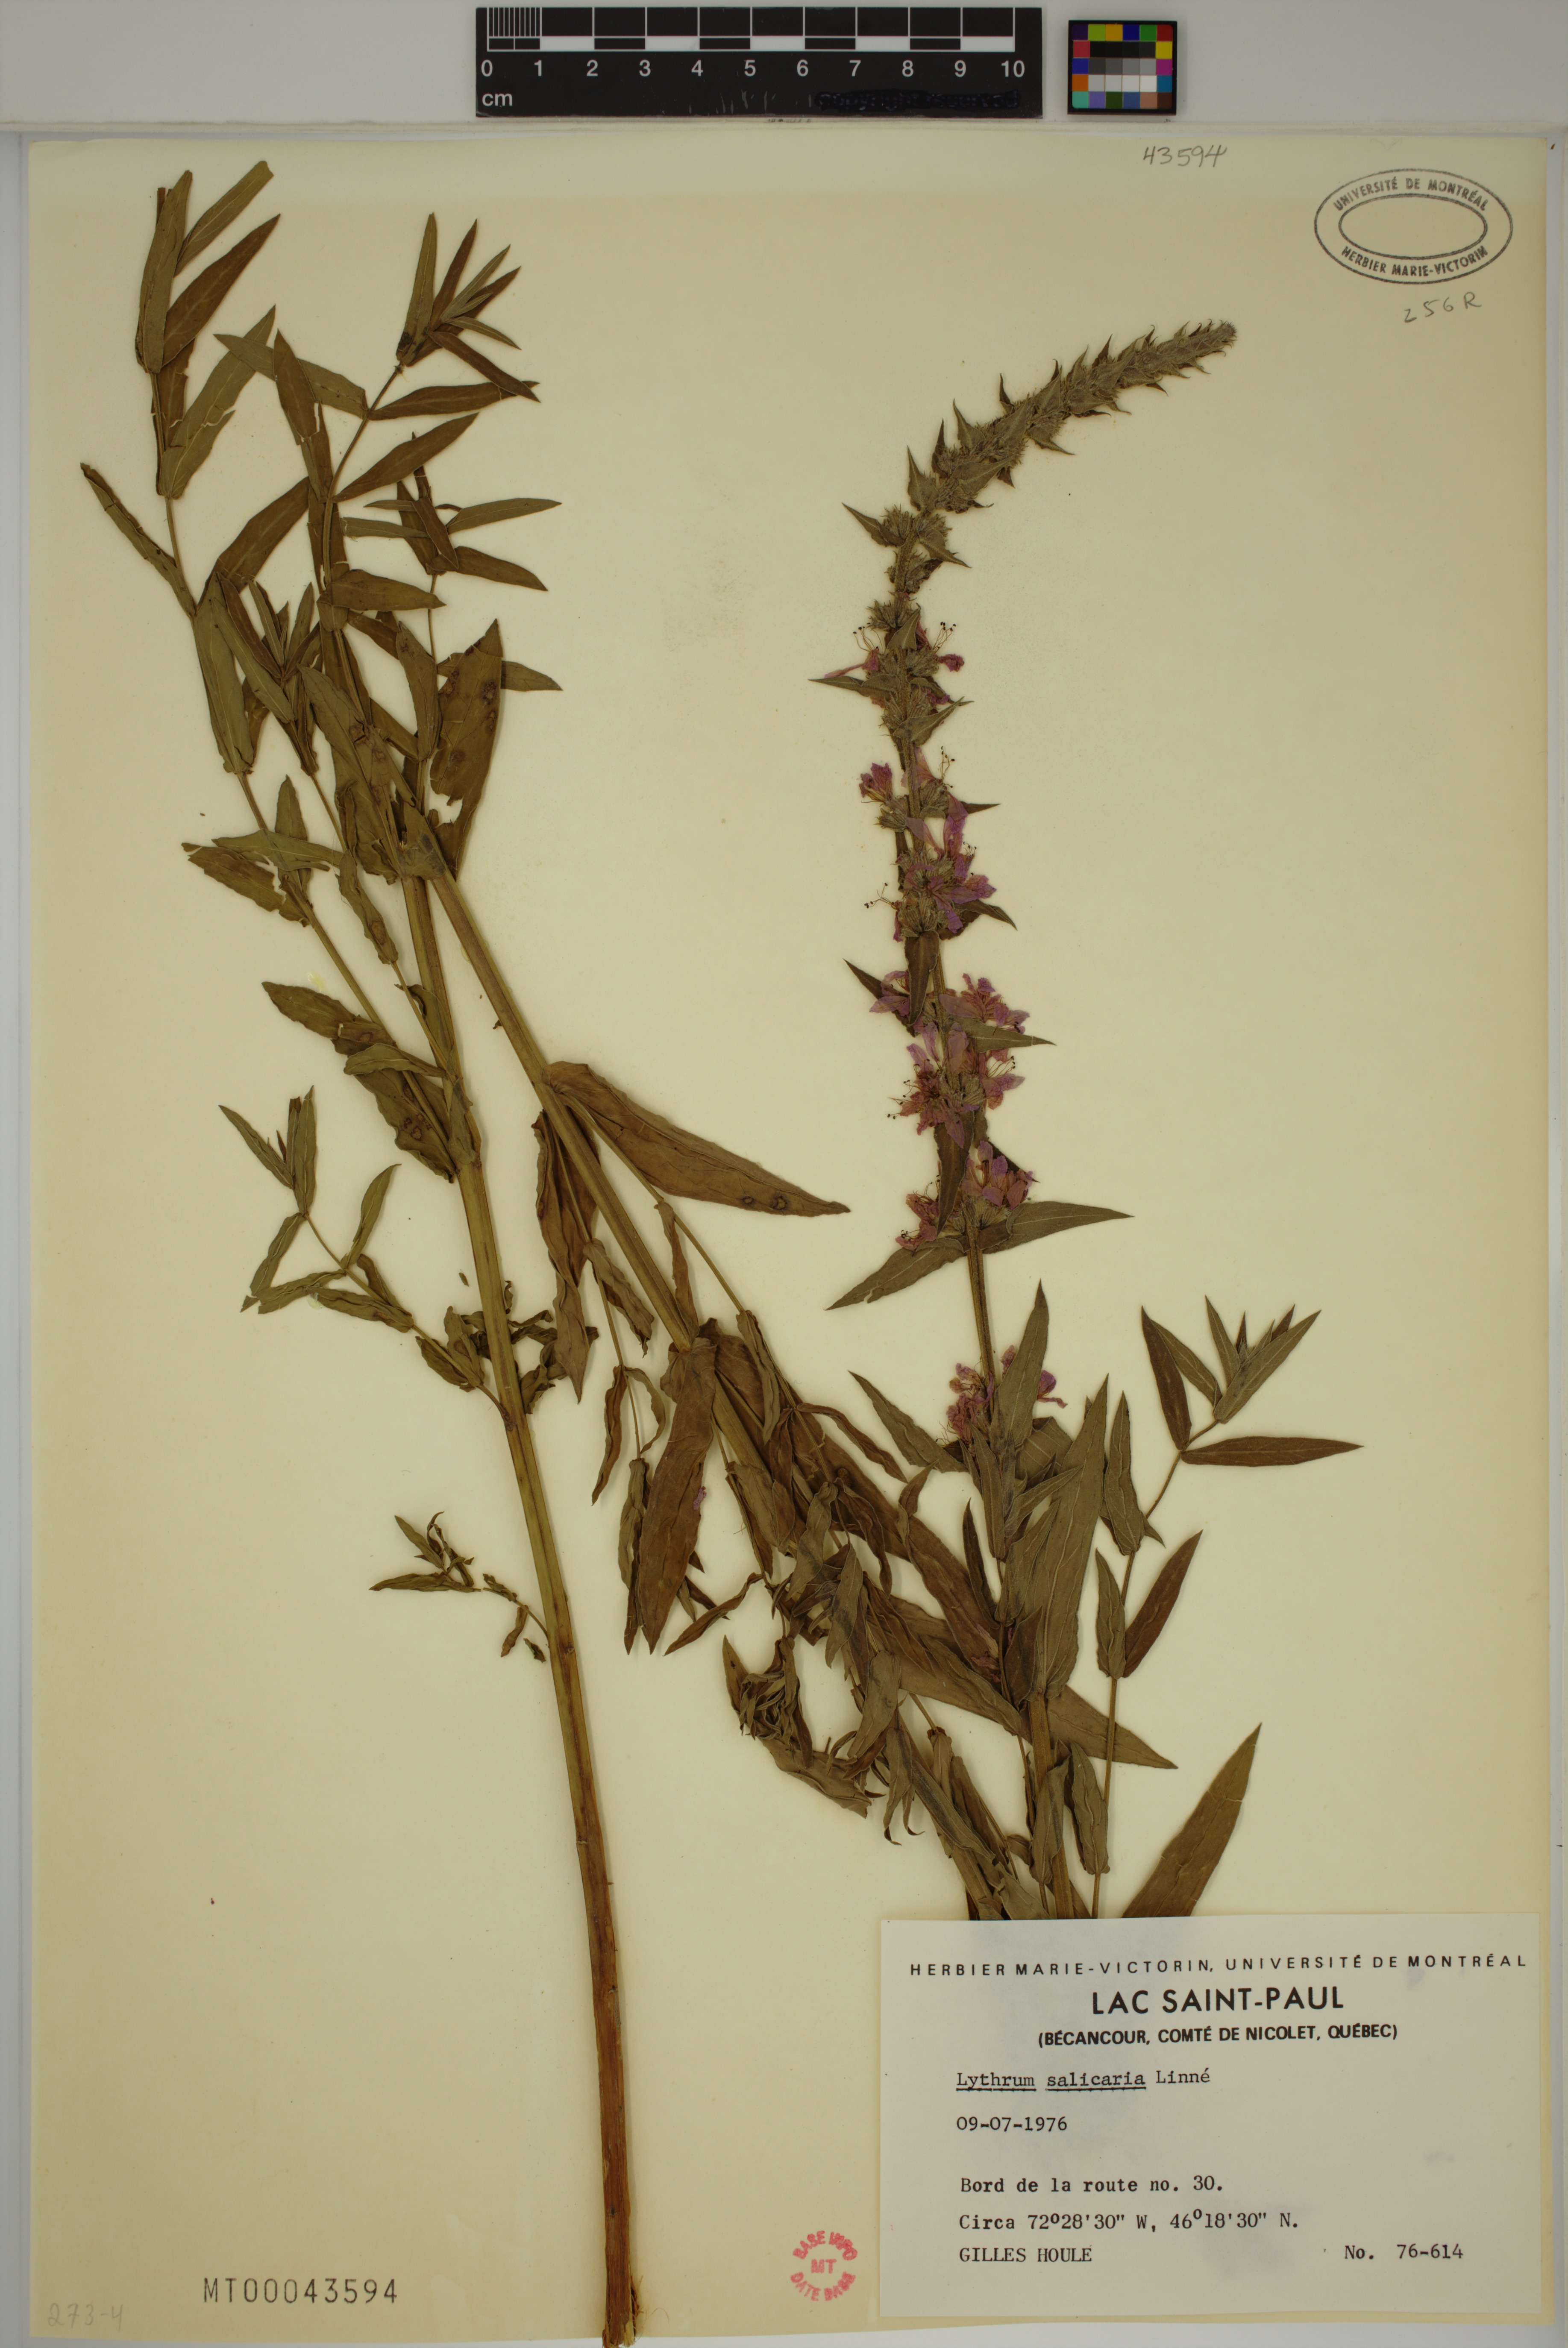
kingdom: Plantae
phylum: Tracheophyta
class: Magnoliopsida
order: Myrtales
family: Lythraceae
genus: Lythrum
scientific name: Lythrum salicaria
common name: Purple loosestrife
